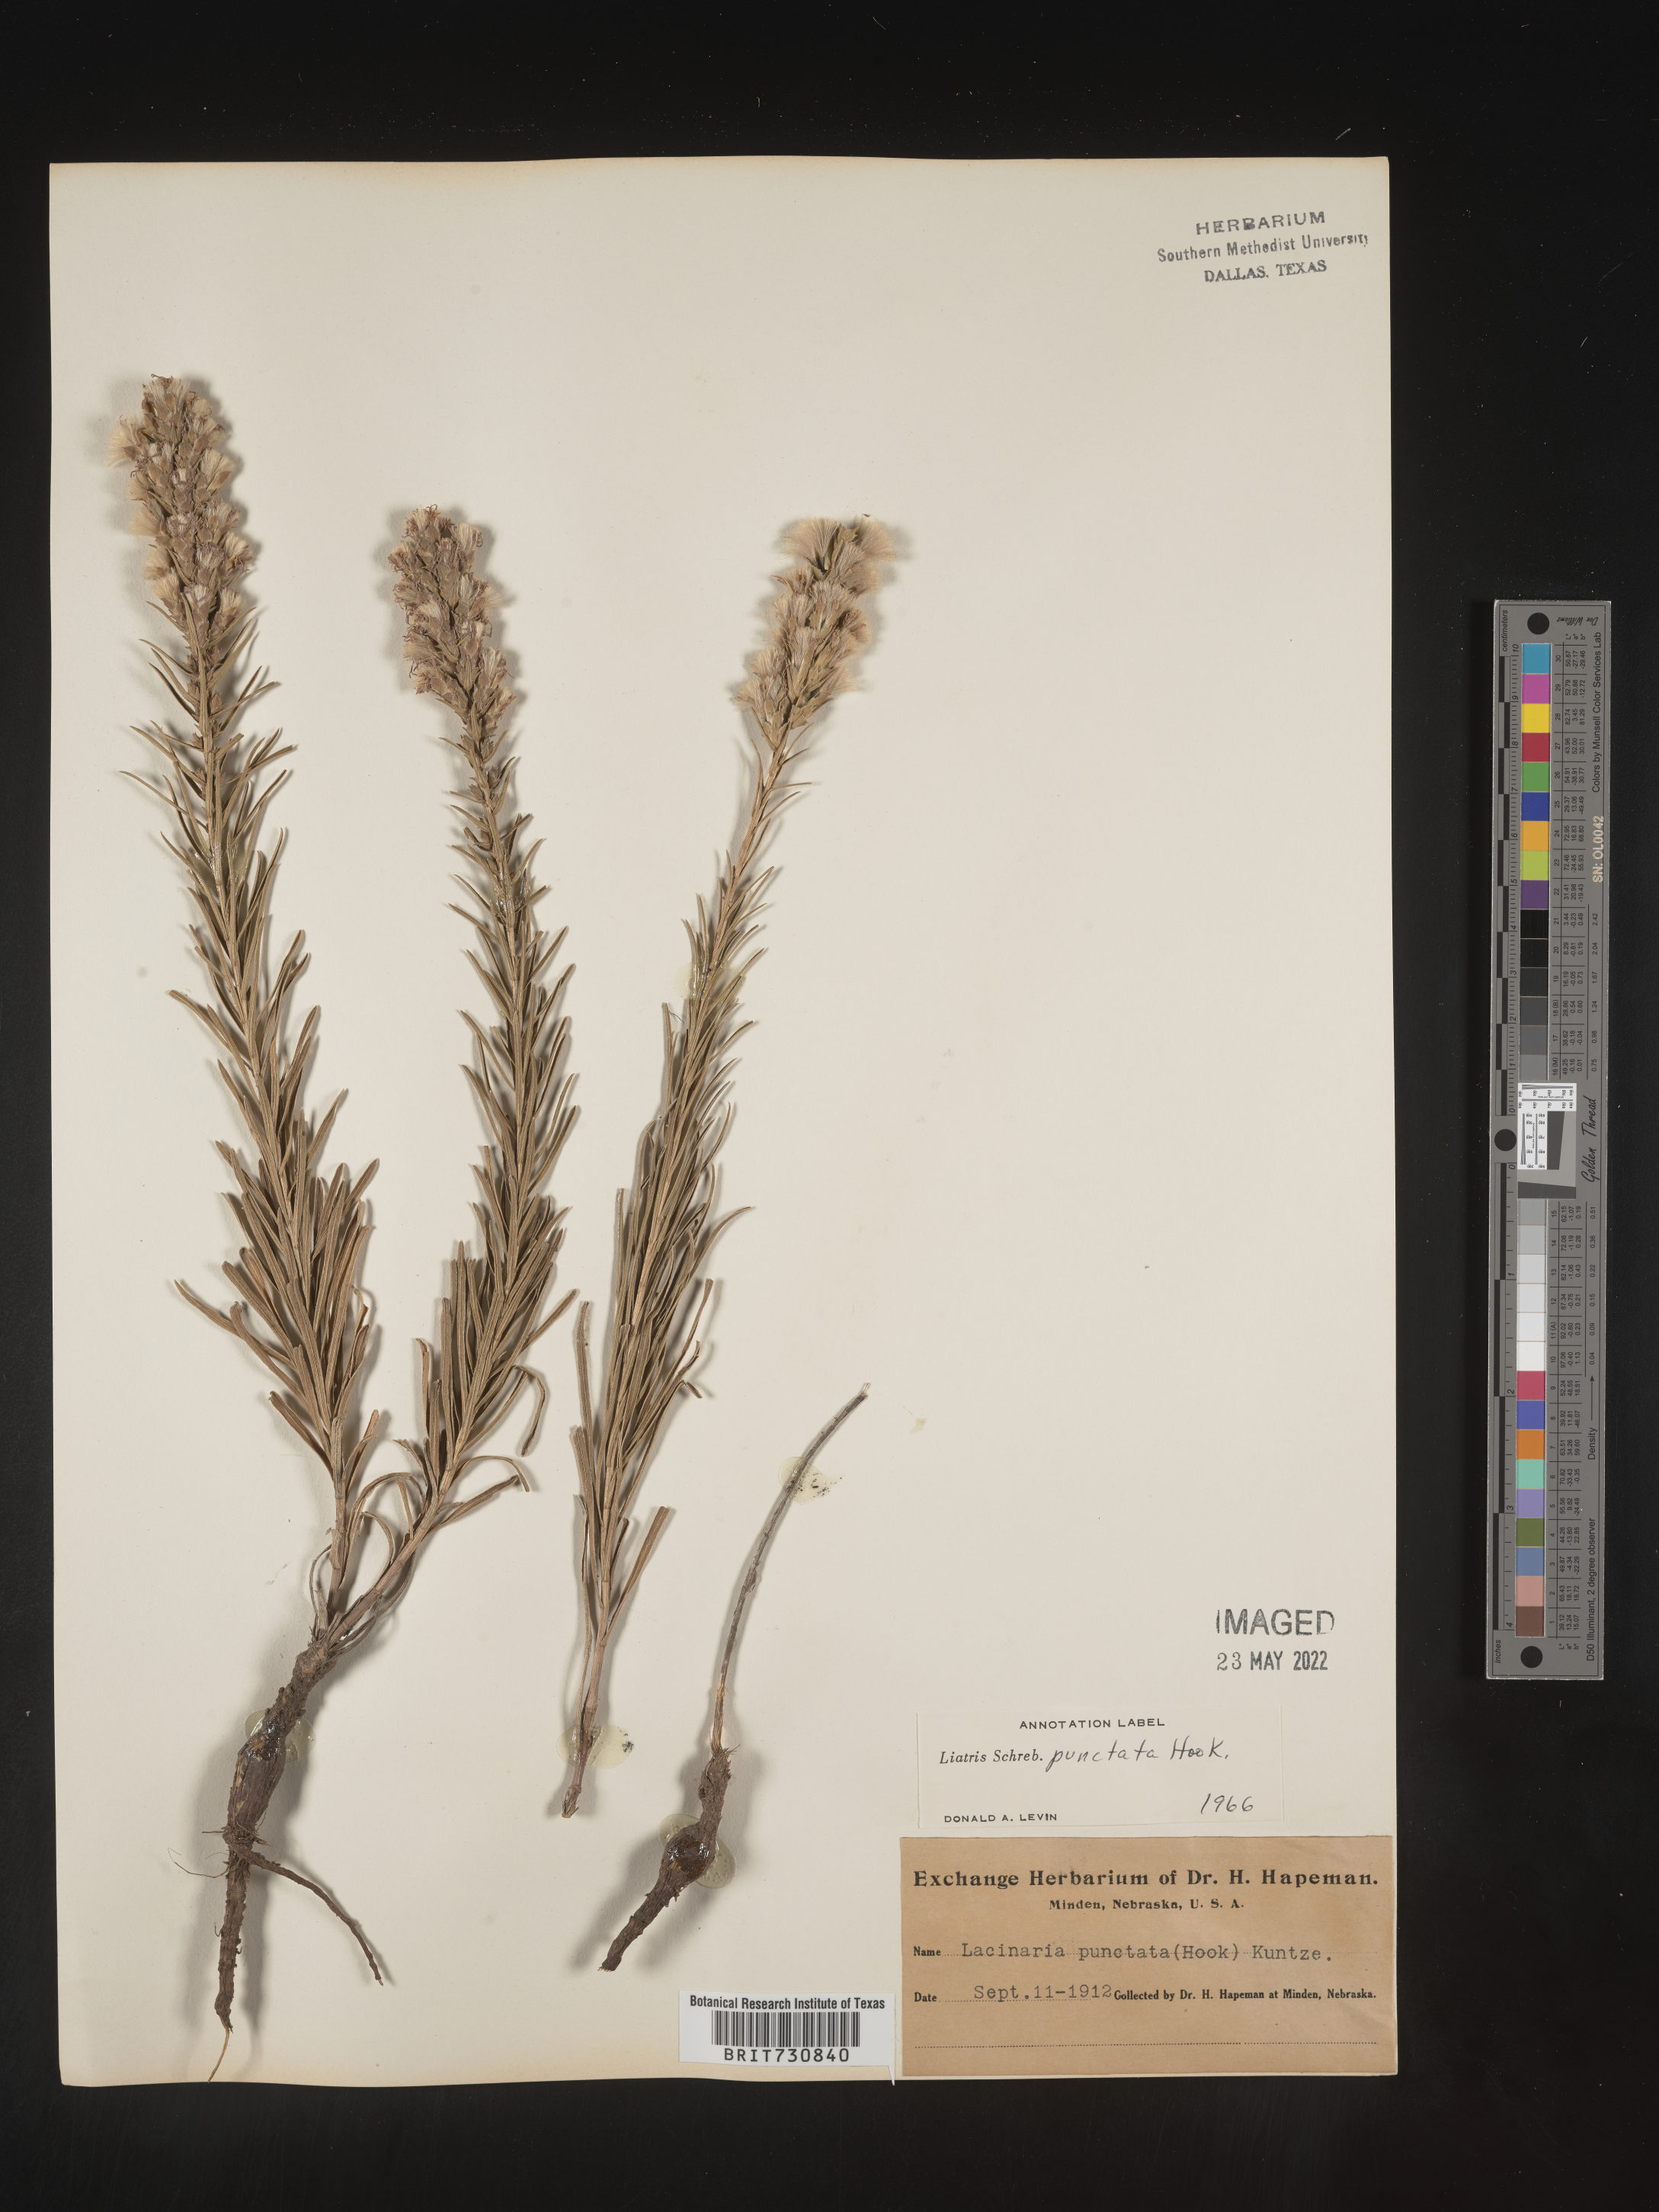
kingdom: Plantae
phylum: Tracheophyta
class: Magnoliopsida
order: Asterales
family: Asteraceae
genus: Liatris
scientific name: Liatris punctata
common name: Dotted gayfeather
